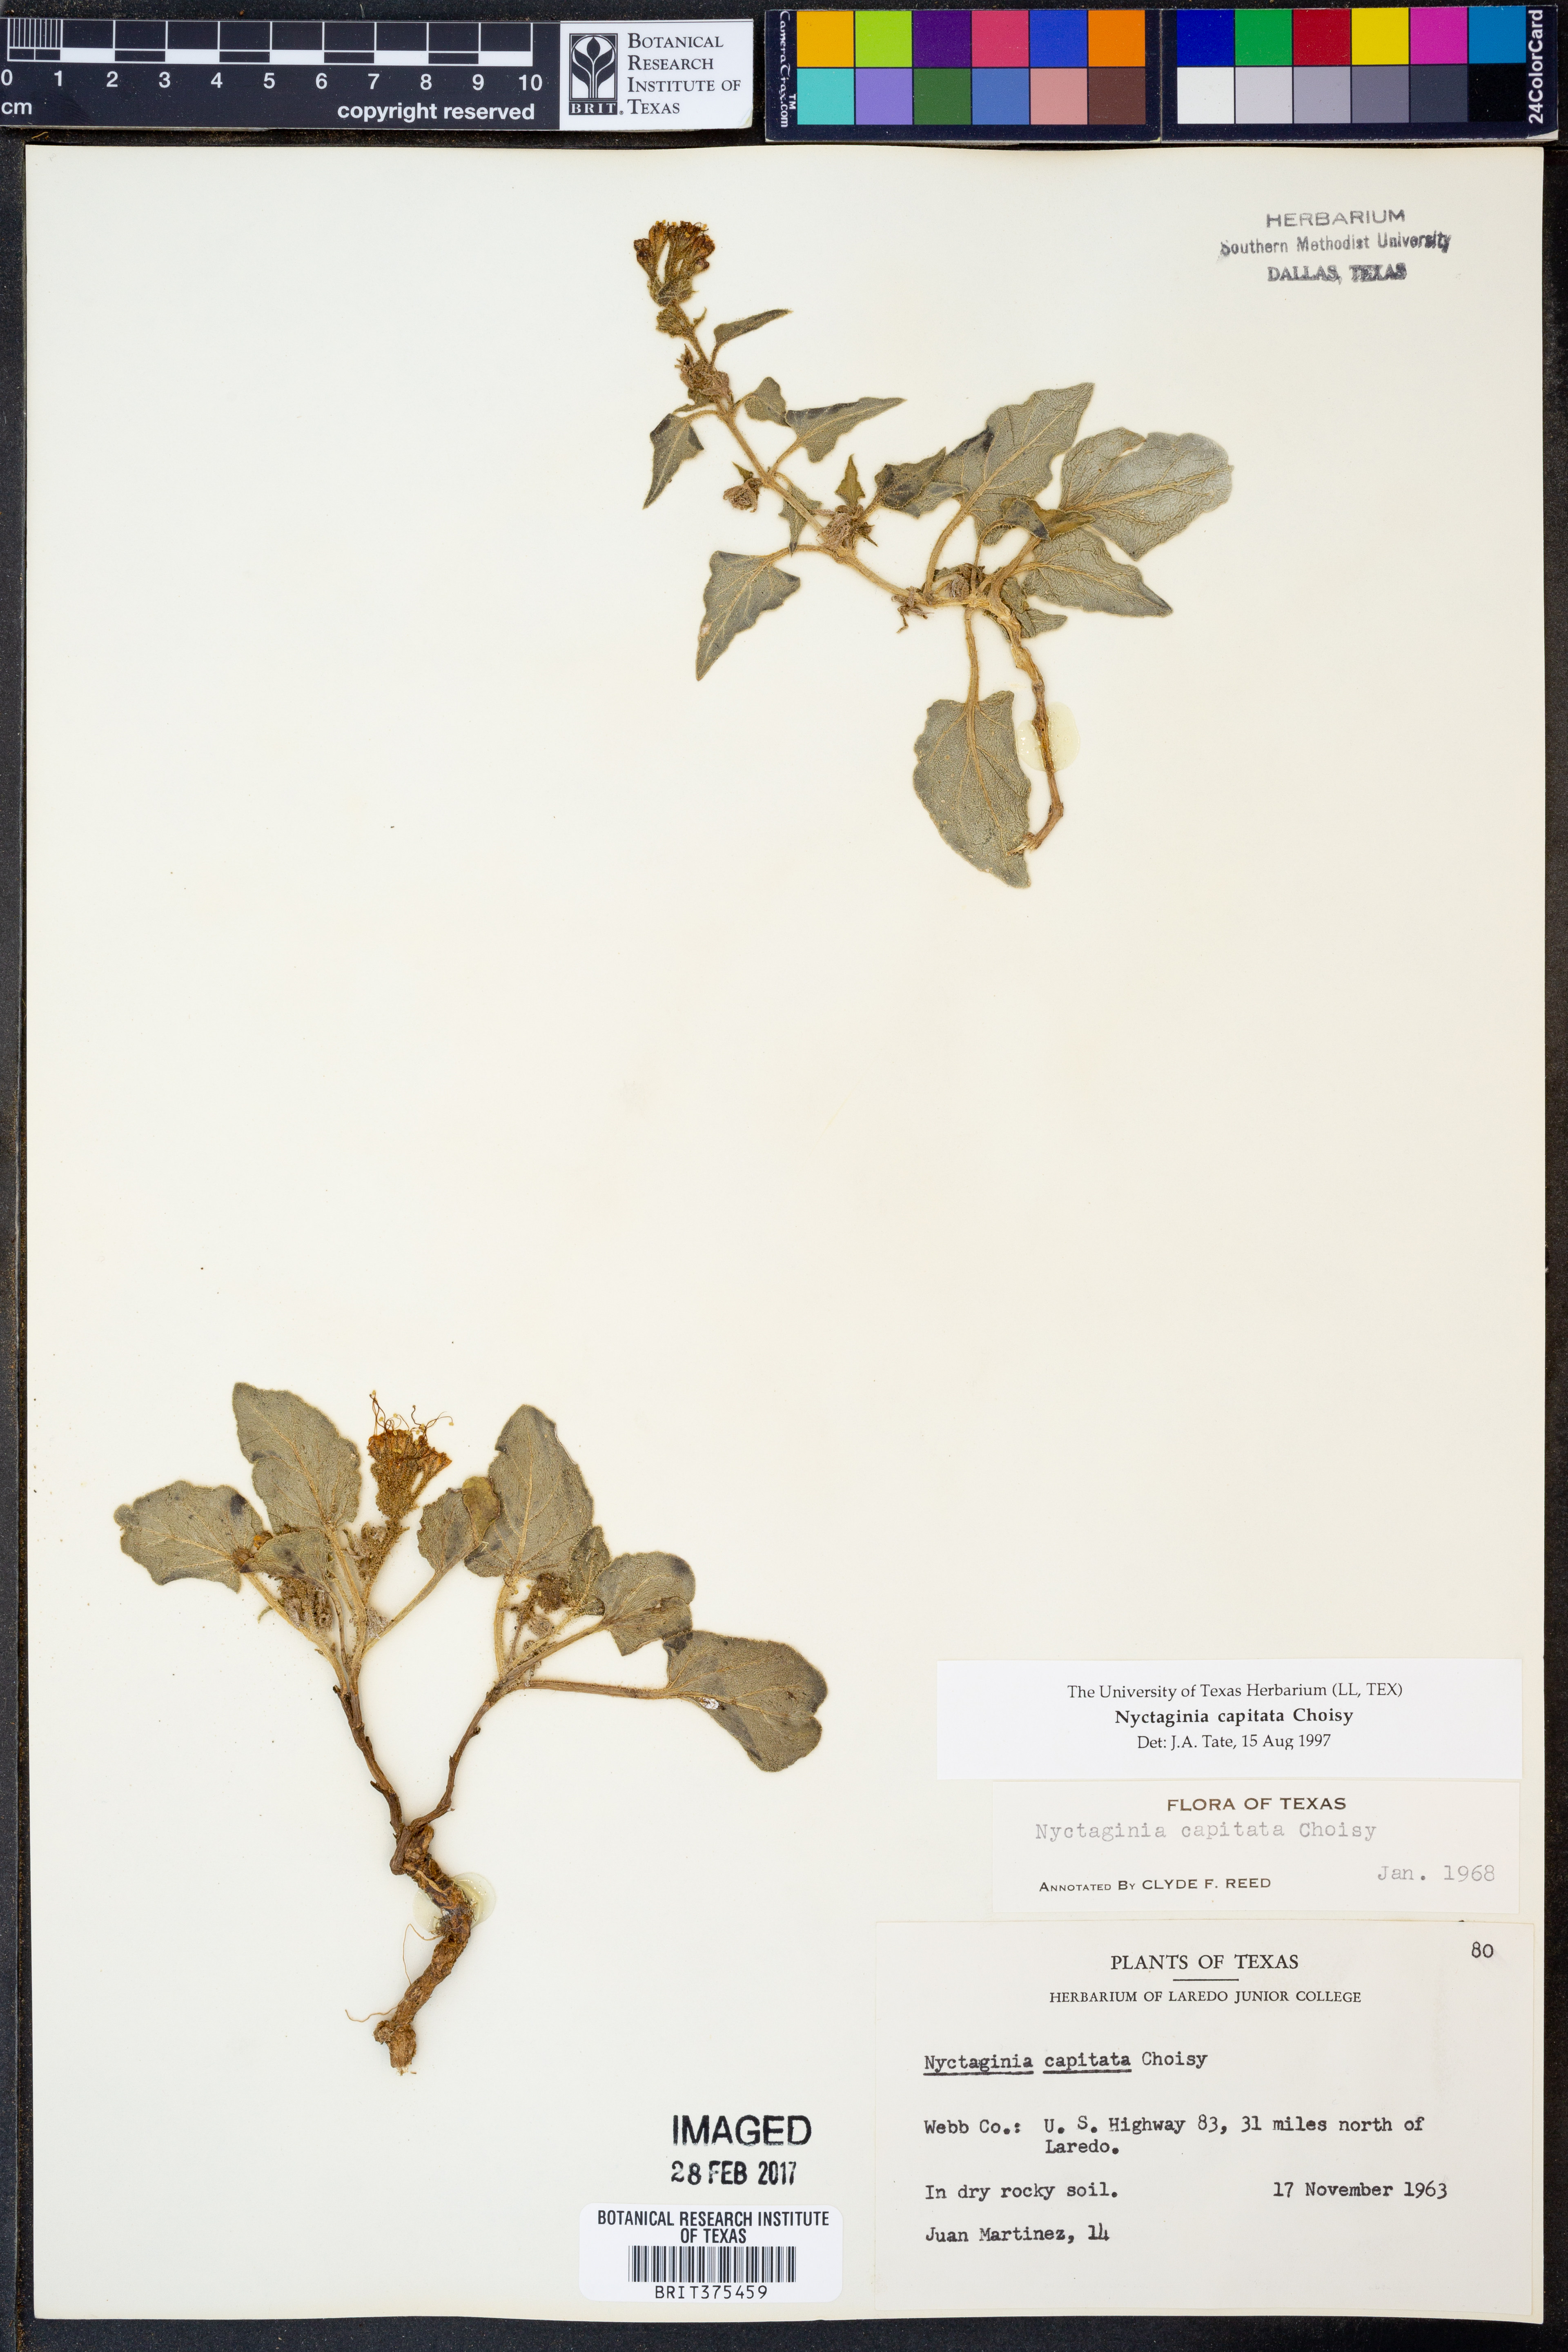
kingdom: Plantae
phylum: Tracheophyta
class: Magnoliopsida
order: Caryophyllales
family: Nyctaginaceae
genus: Nyctaginia
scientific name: Nyctaginia capitata
